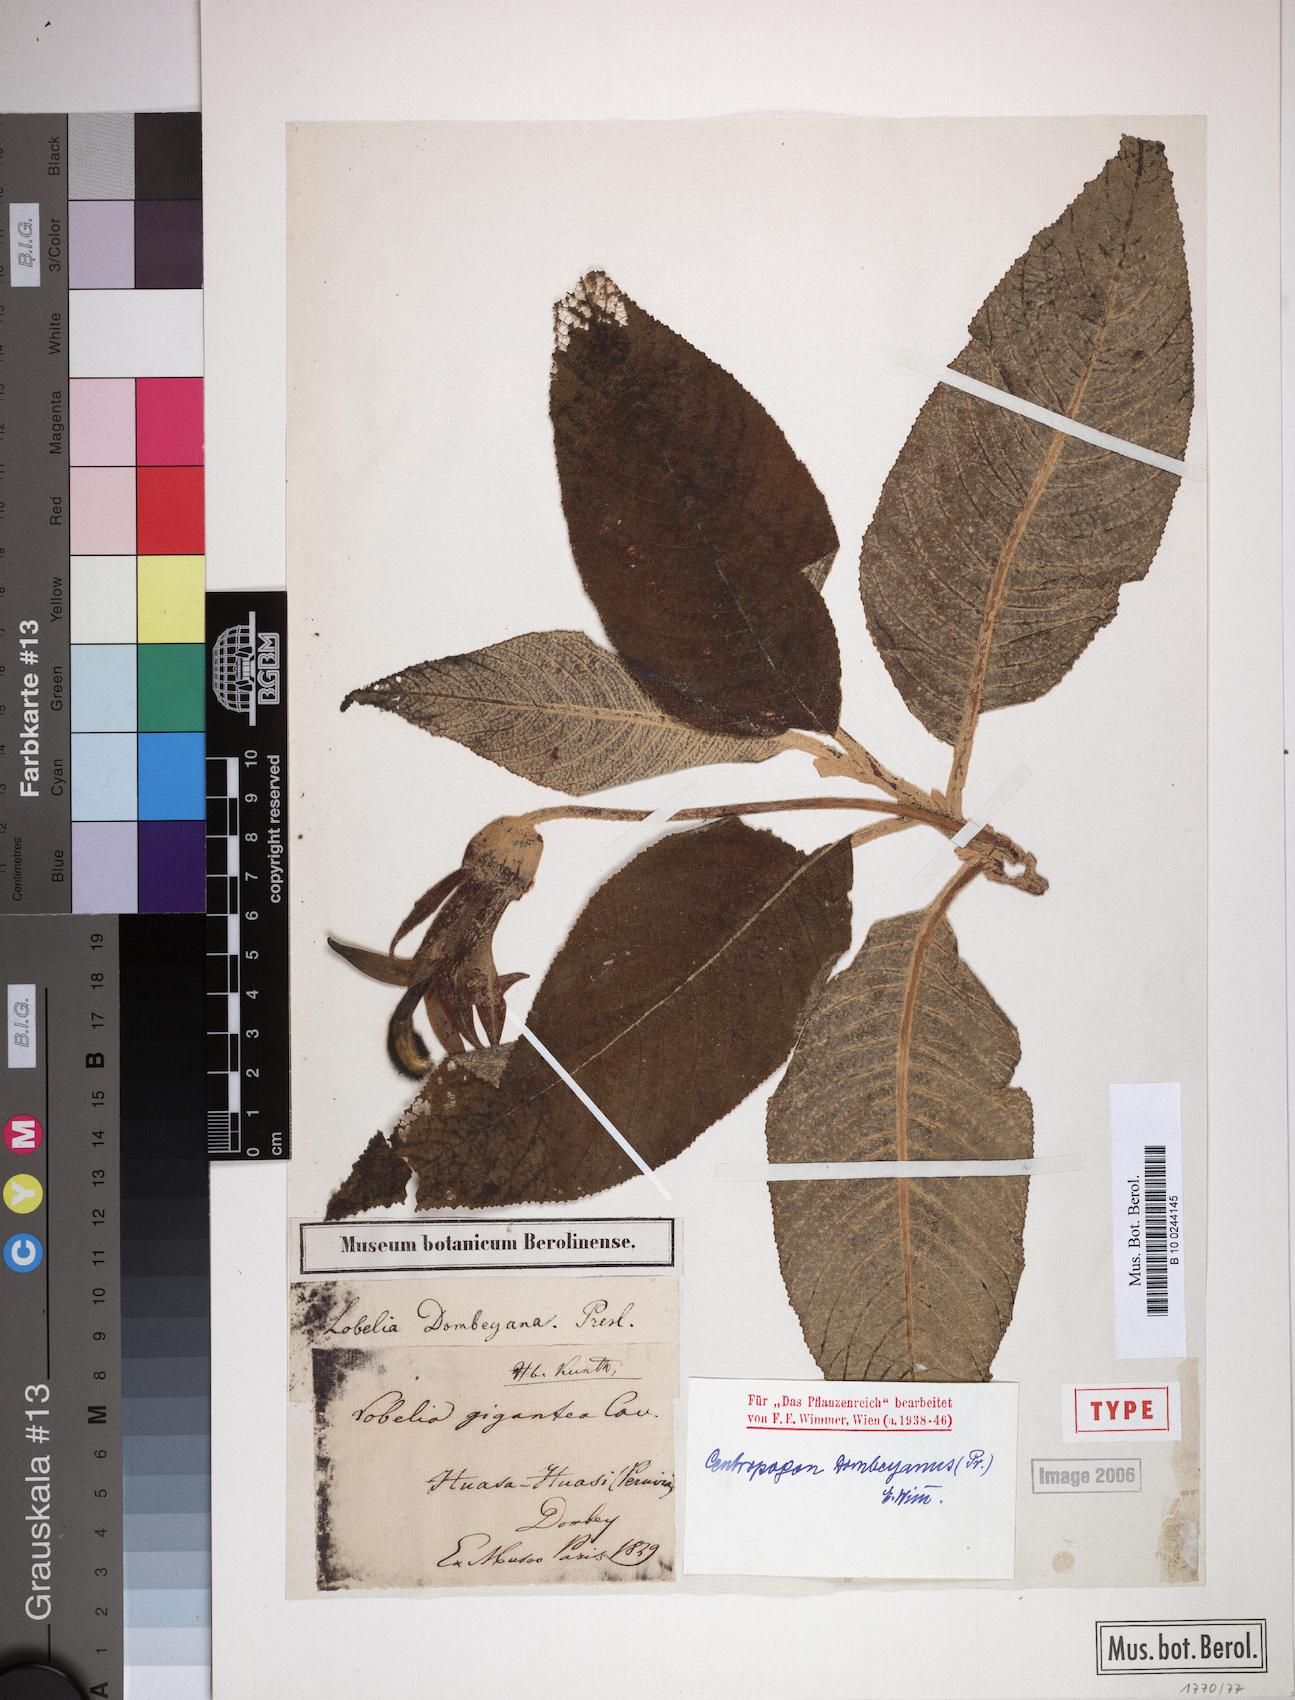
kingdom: Plantae
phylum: Tracheophyta
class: Magnoliopsida
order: Asterales
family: Campanulaceae
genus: Centropogon
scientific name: Centropogon dombeyanus
